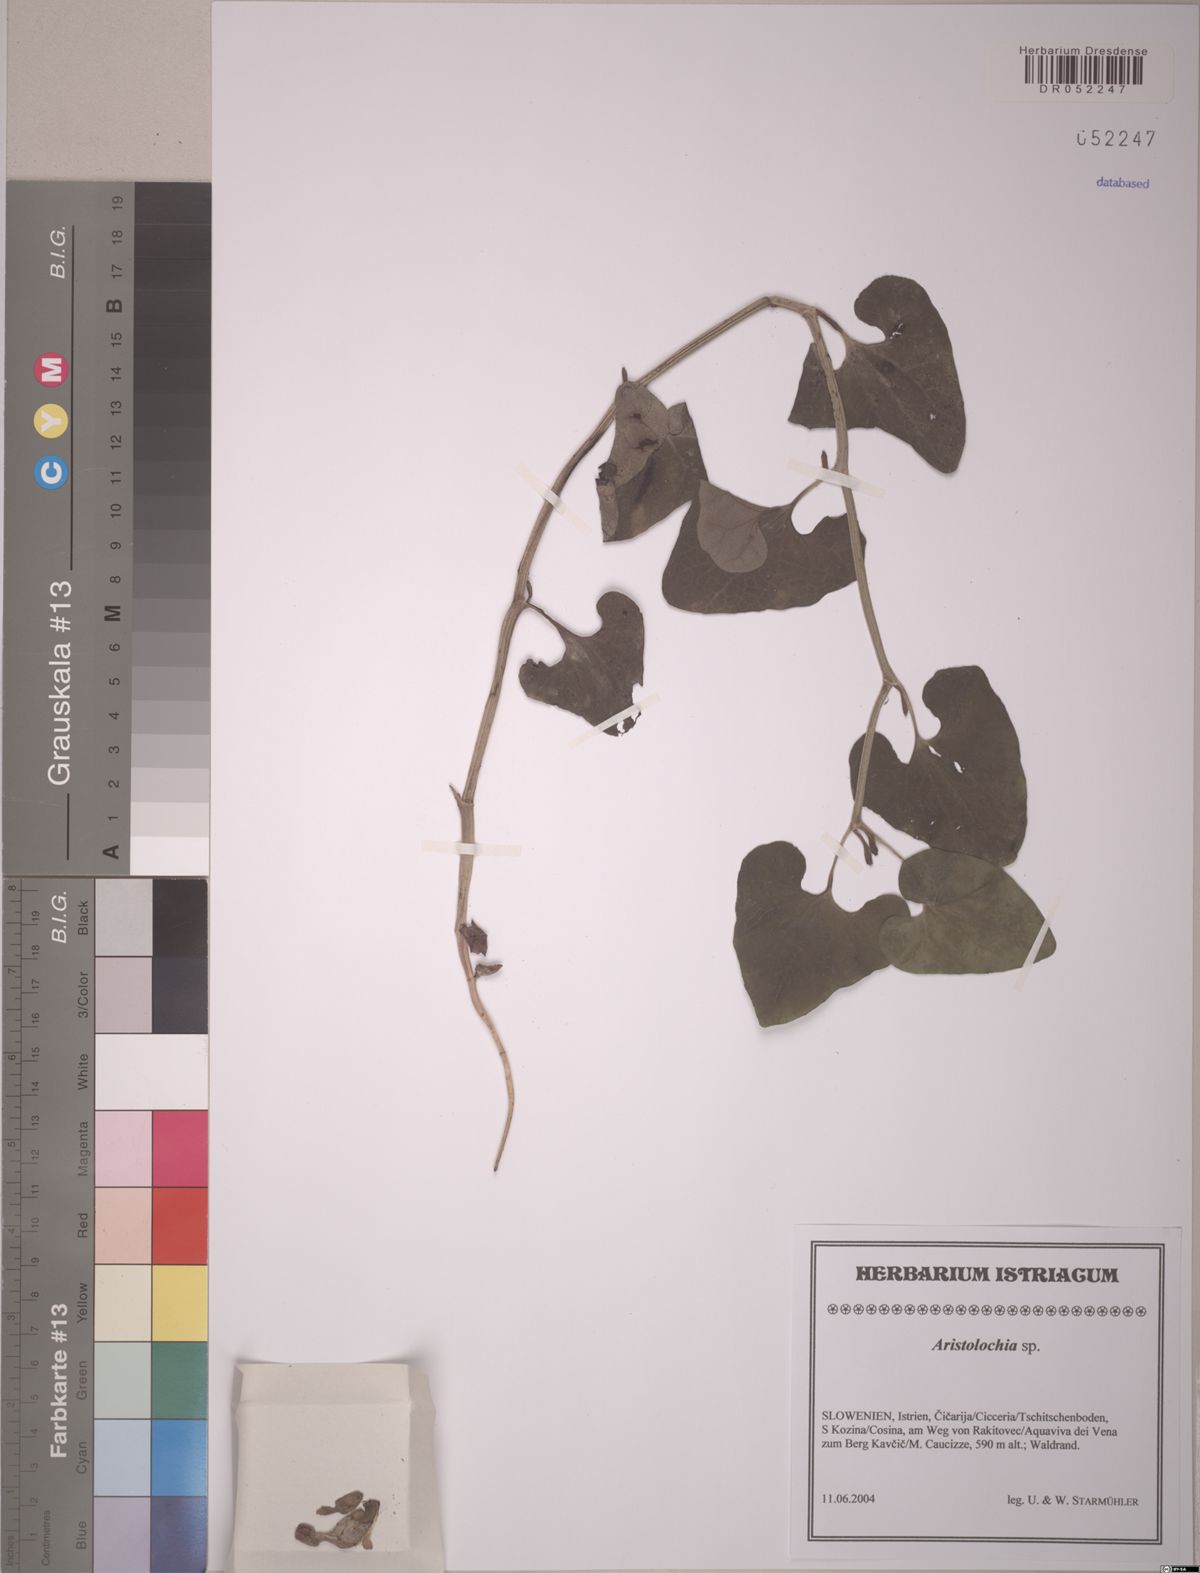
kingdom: Plantae
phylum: Tracheophyta
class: Magnoliopsida
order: Piperales
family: Aristolochiaceae
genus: Aristolochia
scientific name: Aristolochia
